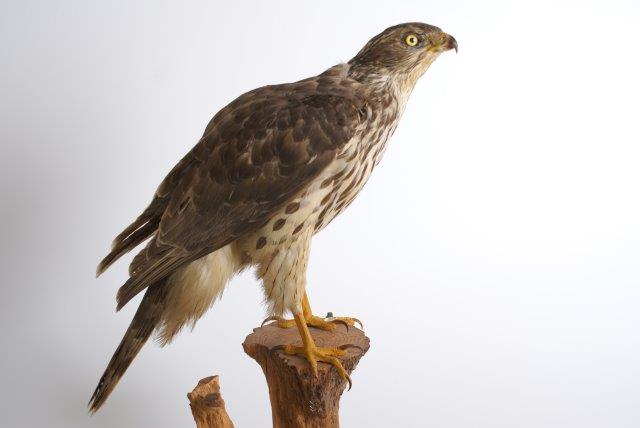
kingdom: Animalia
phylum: Chordata
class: Aves
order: Accipitriformes
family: Accipitridae
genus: Accipiter
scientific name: Accipiter gentilis
